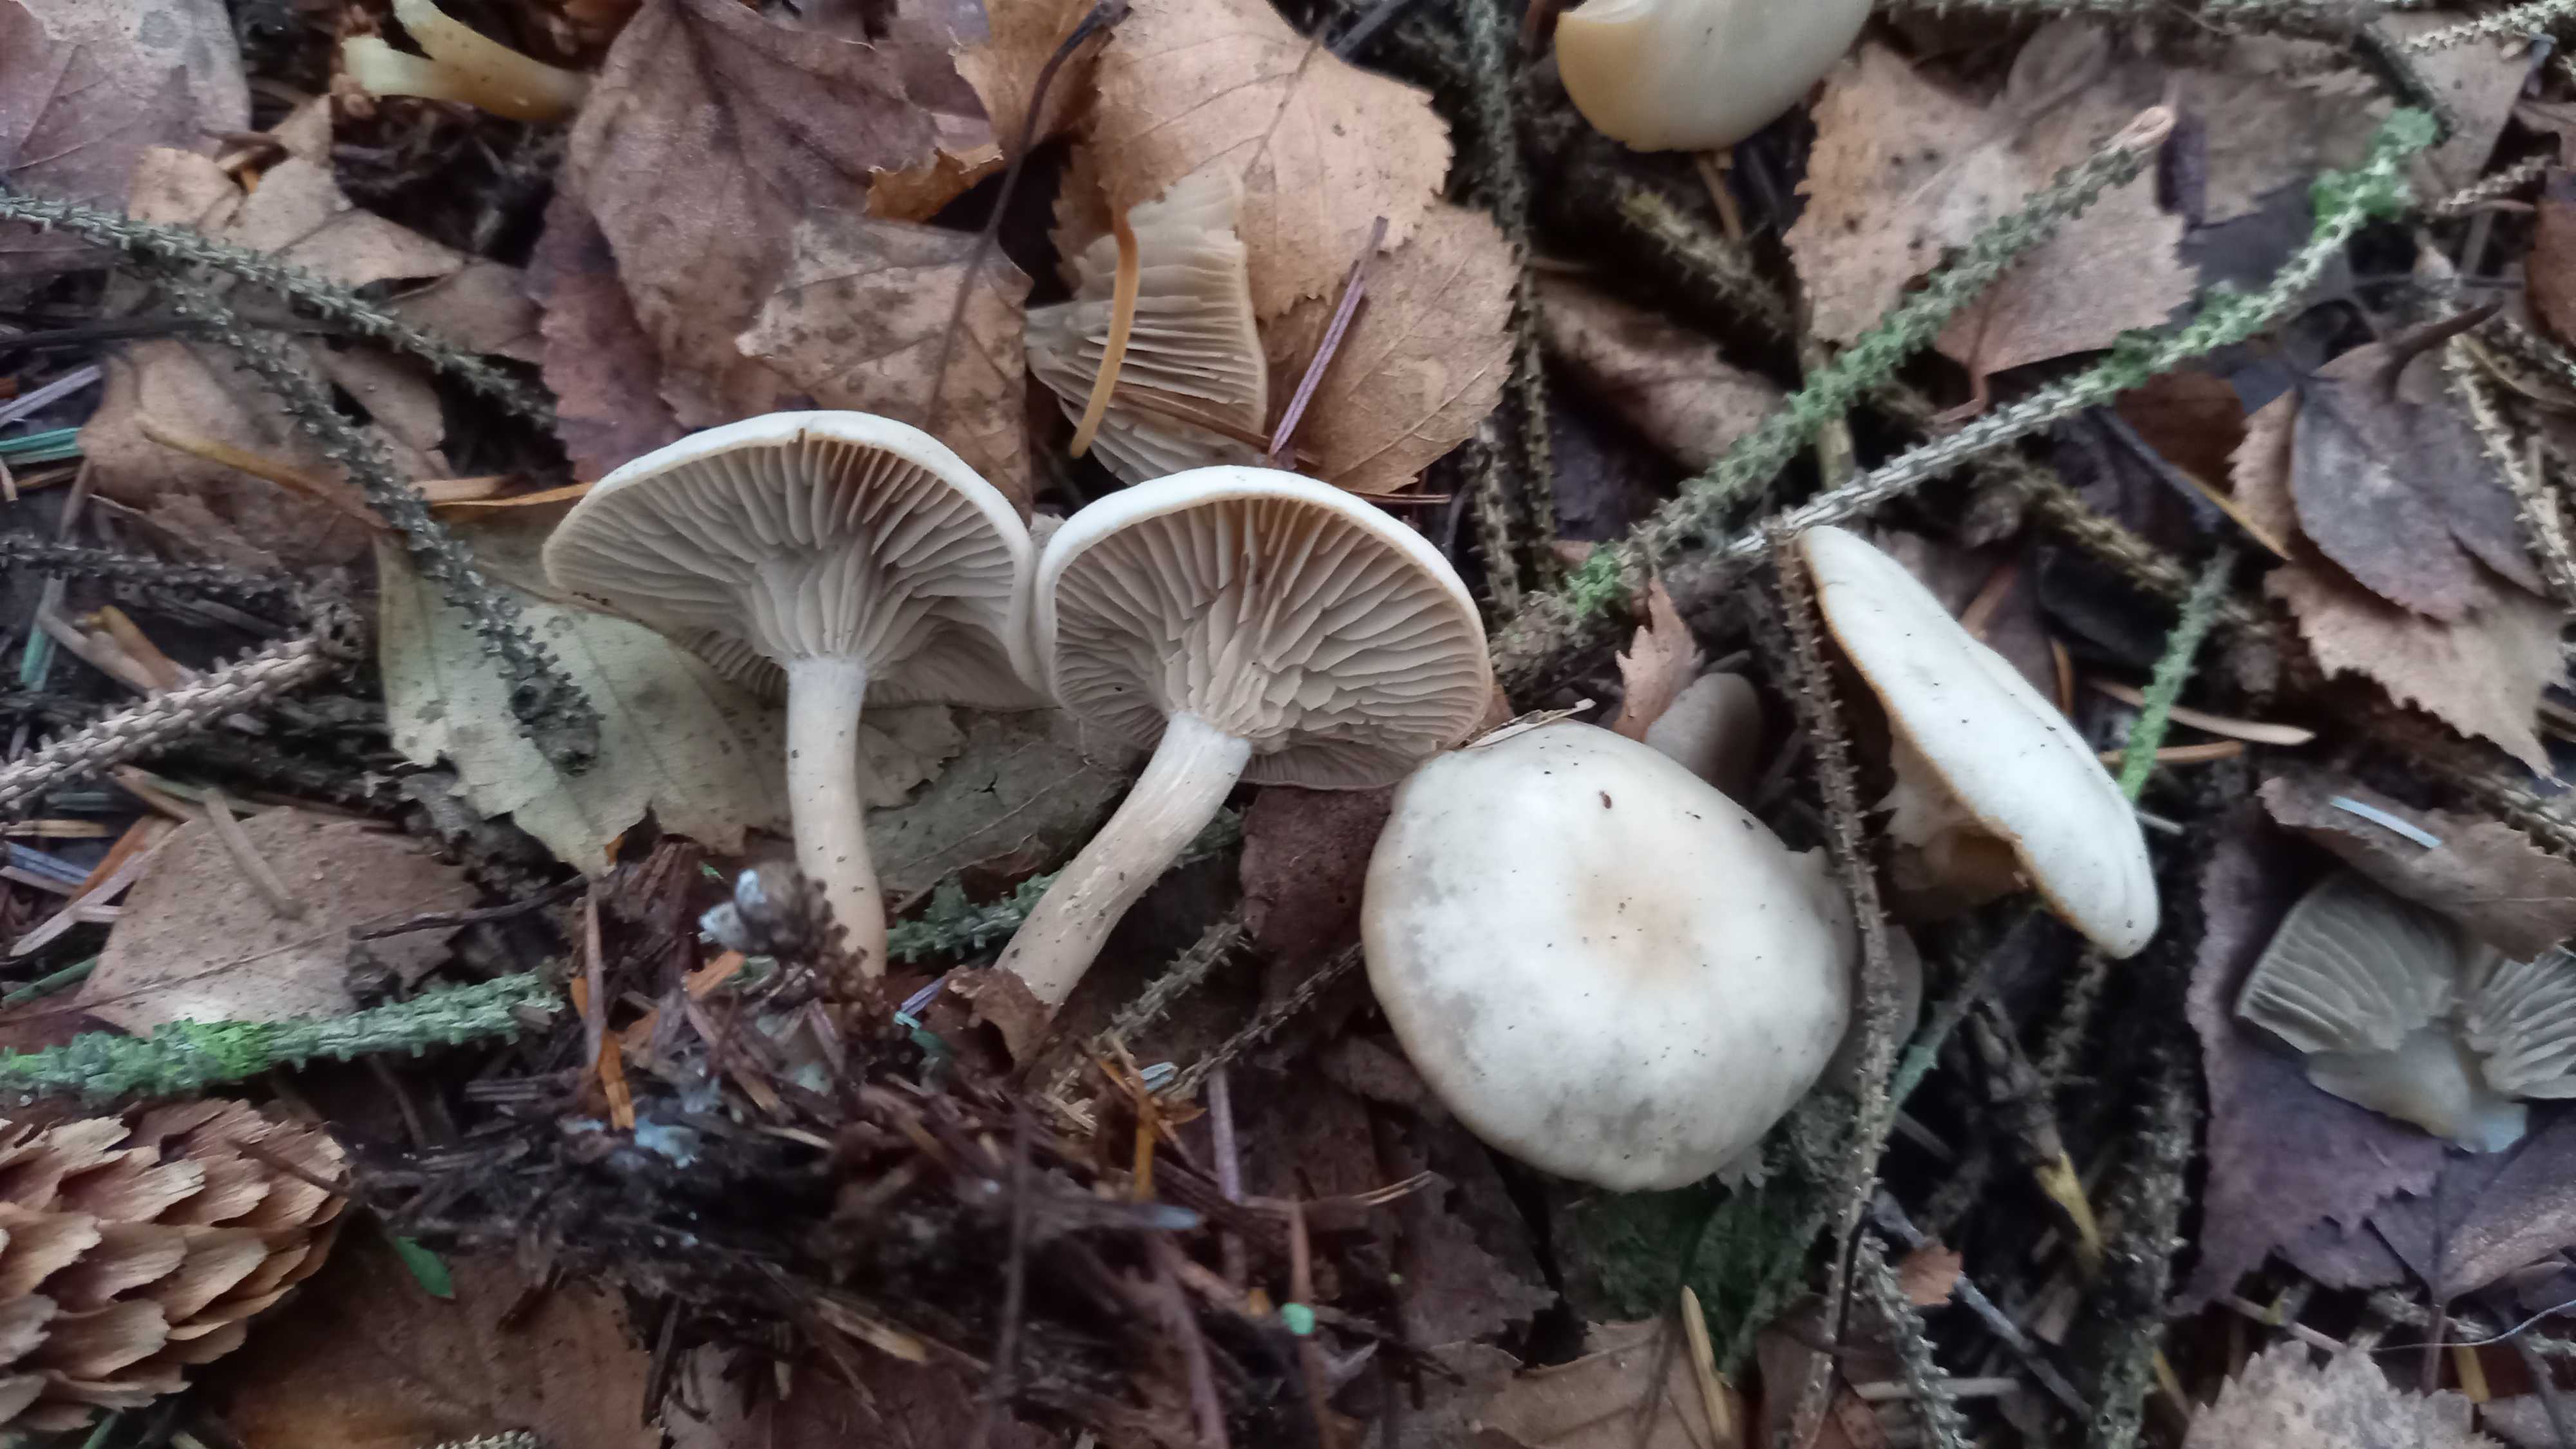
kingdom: Fungi
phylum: Basidiomycota
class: Agaricomycetes
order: Agaricales
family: Tricholomataceae
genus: Clitocybe
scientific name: Clitocybe metachroa
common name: grå tragthat
